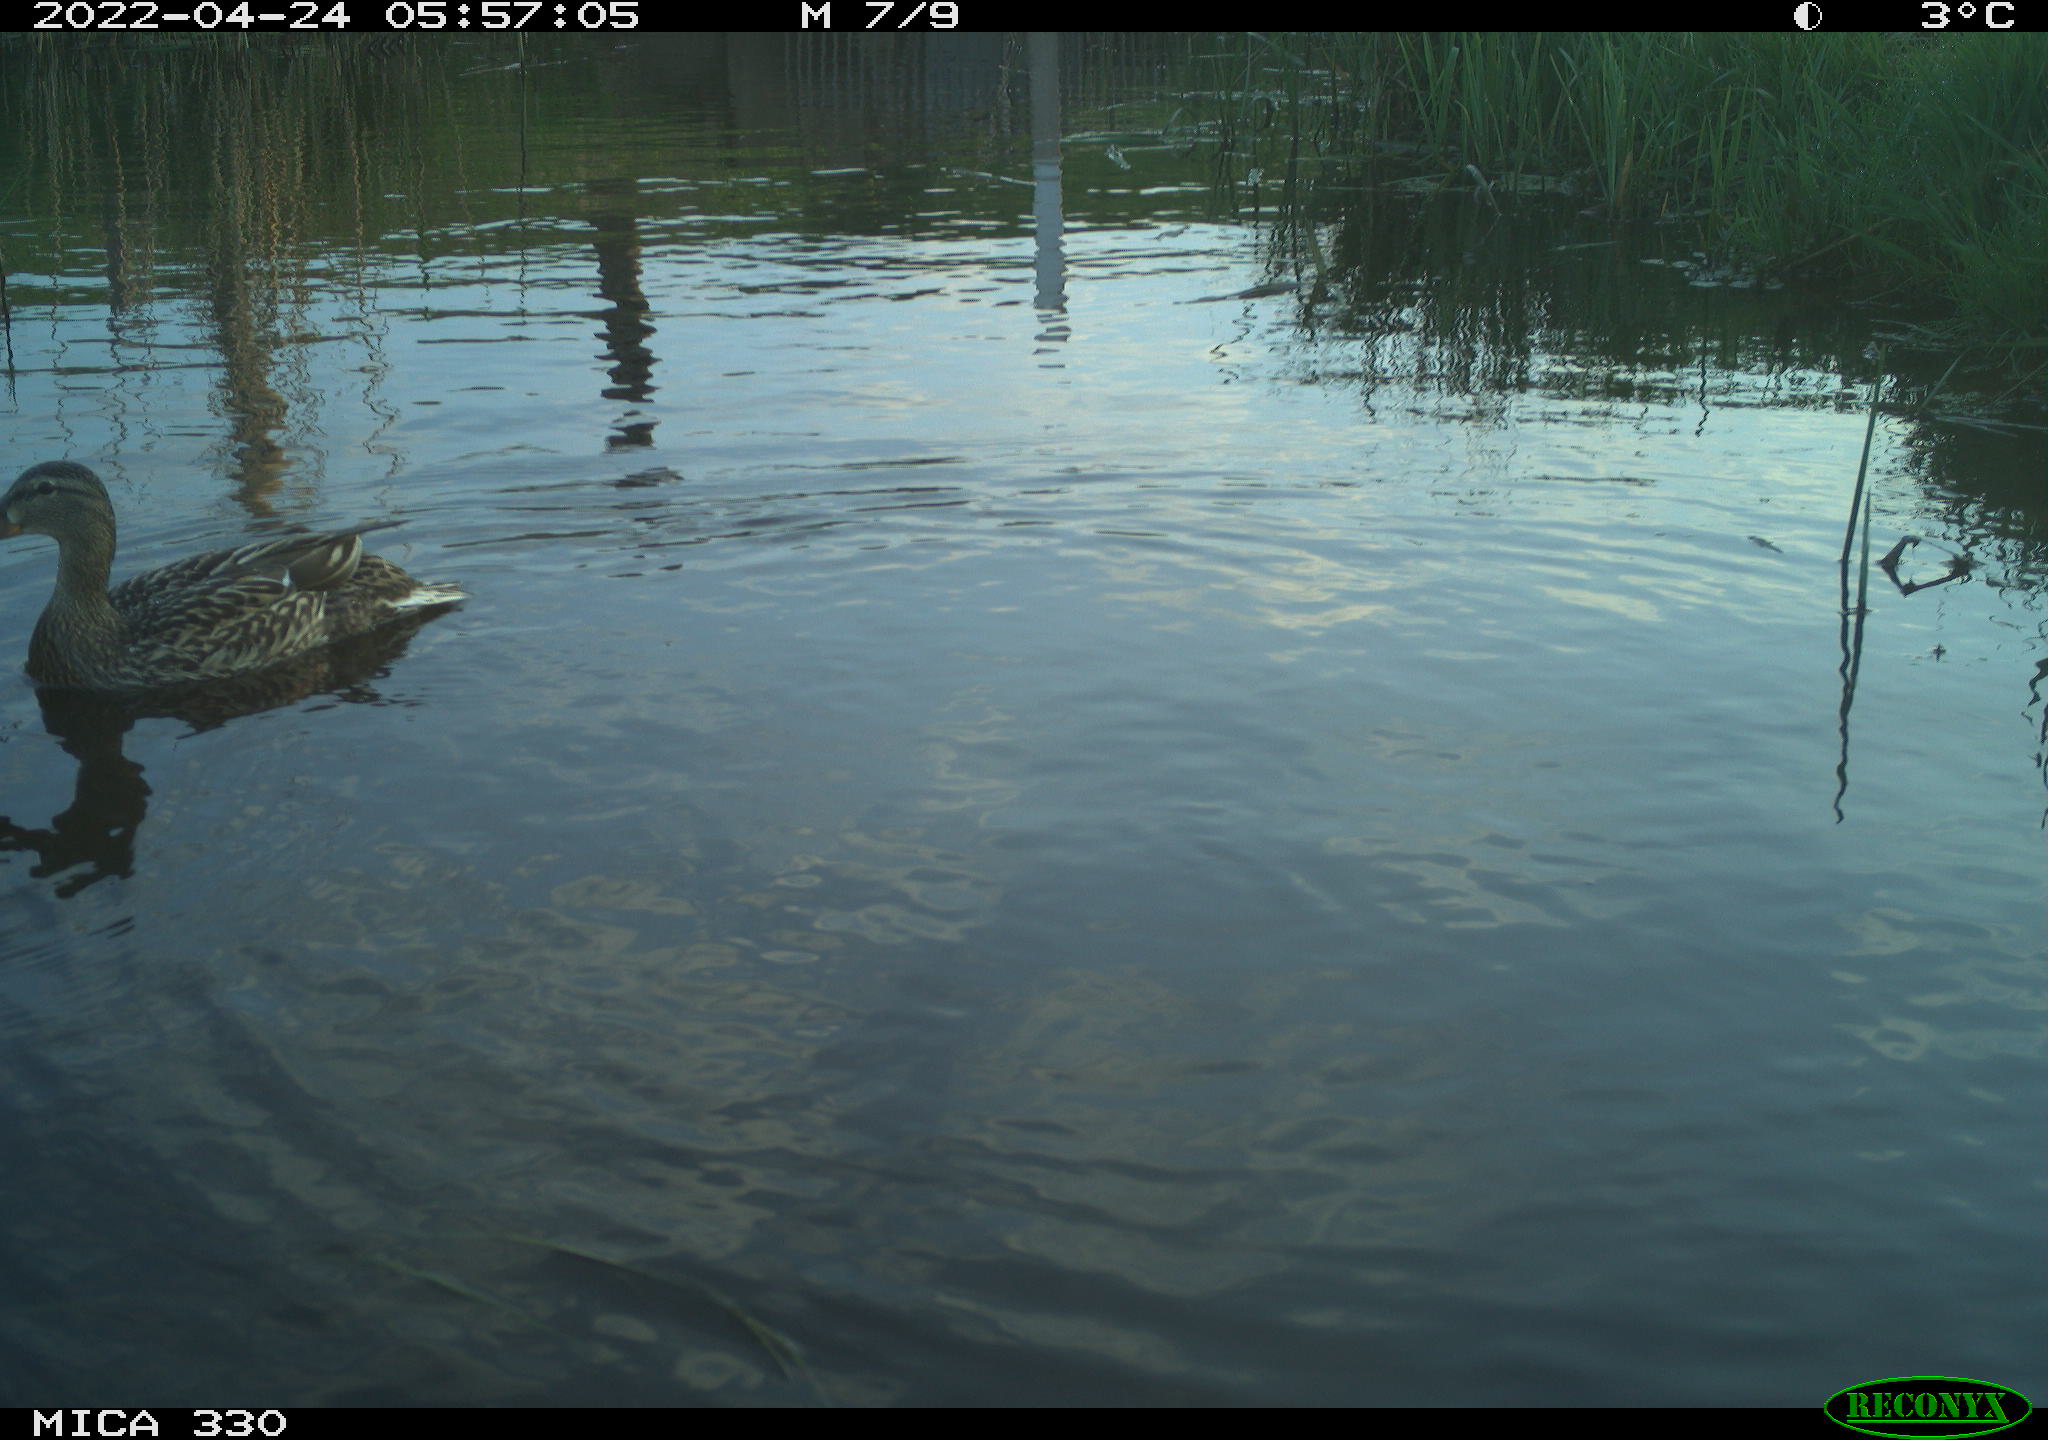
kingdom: Animalia
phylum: Chordata
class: Aves
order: Anseriformes
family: Anatidae
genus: Anas
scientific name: Anas platyrhynchos
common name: Mallard
